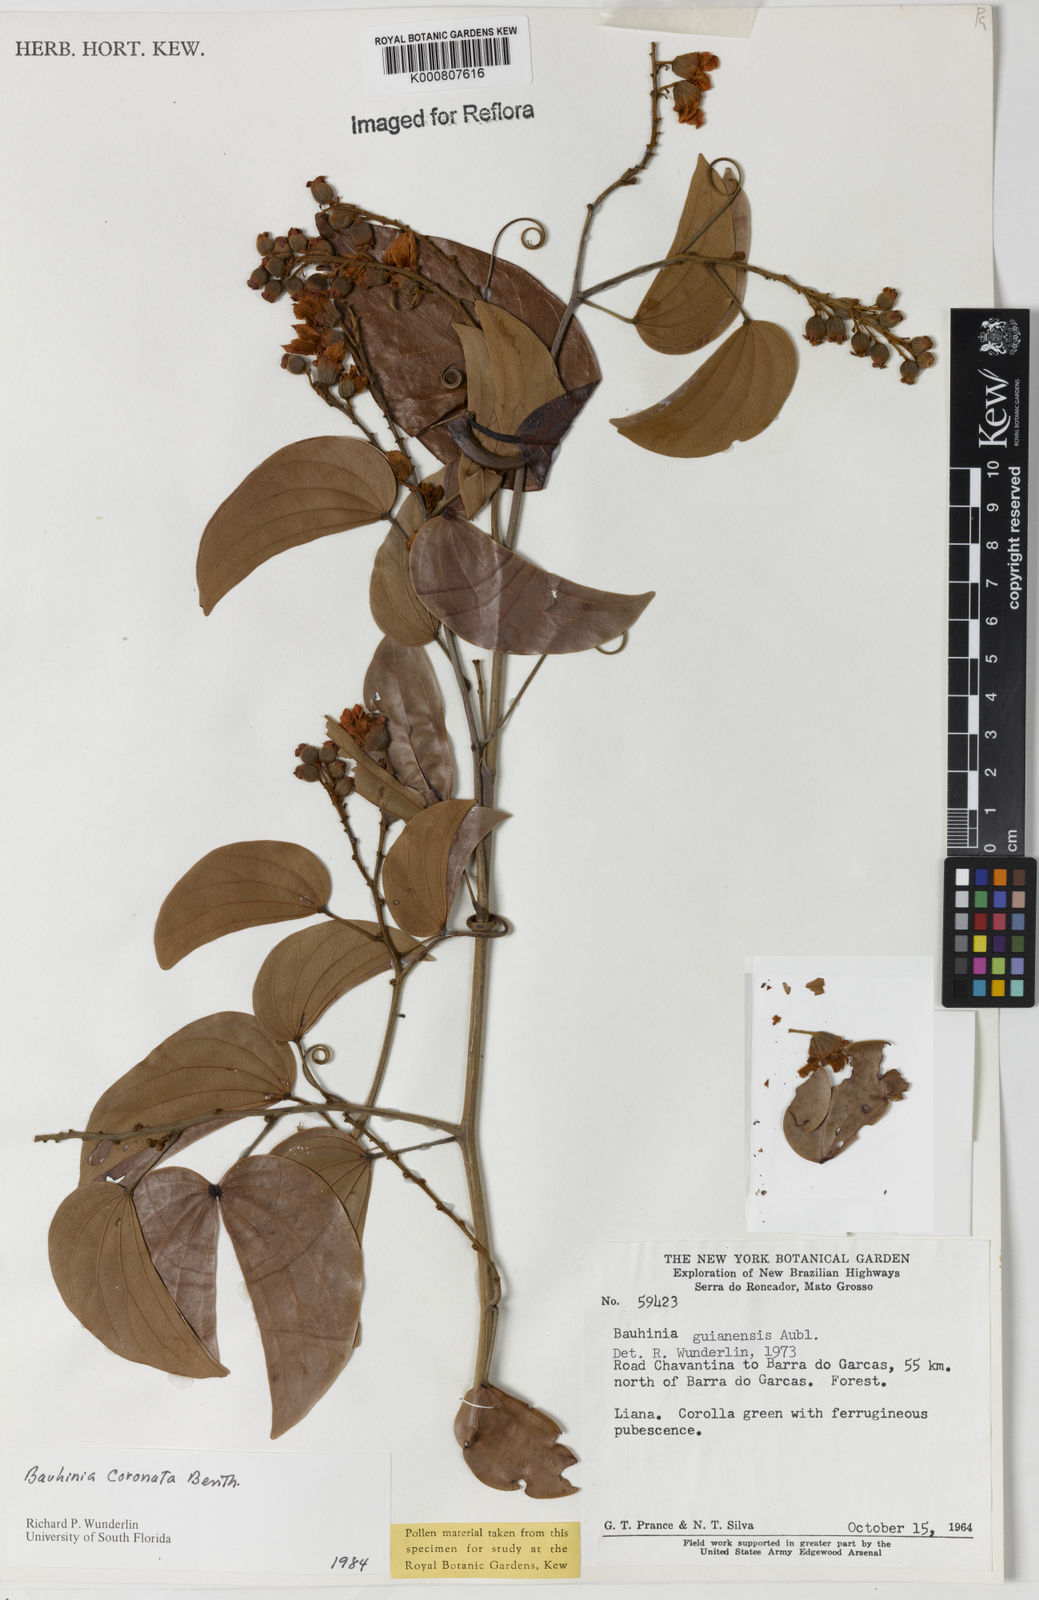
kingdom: Plantae
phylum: Tracheophyta
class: Magnoliopsida
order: Fabales
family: Fabaceae
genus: Schnella
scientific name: Schnella outimouta
